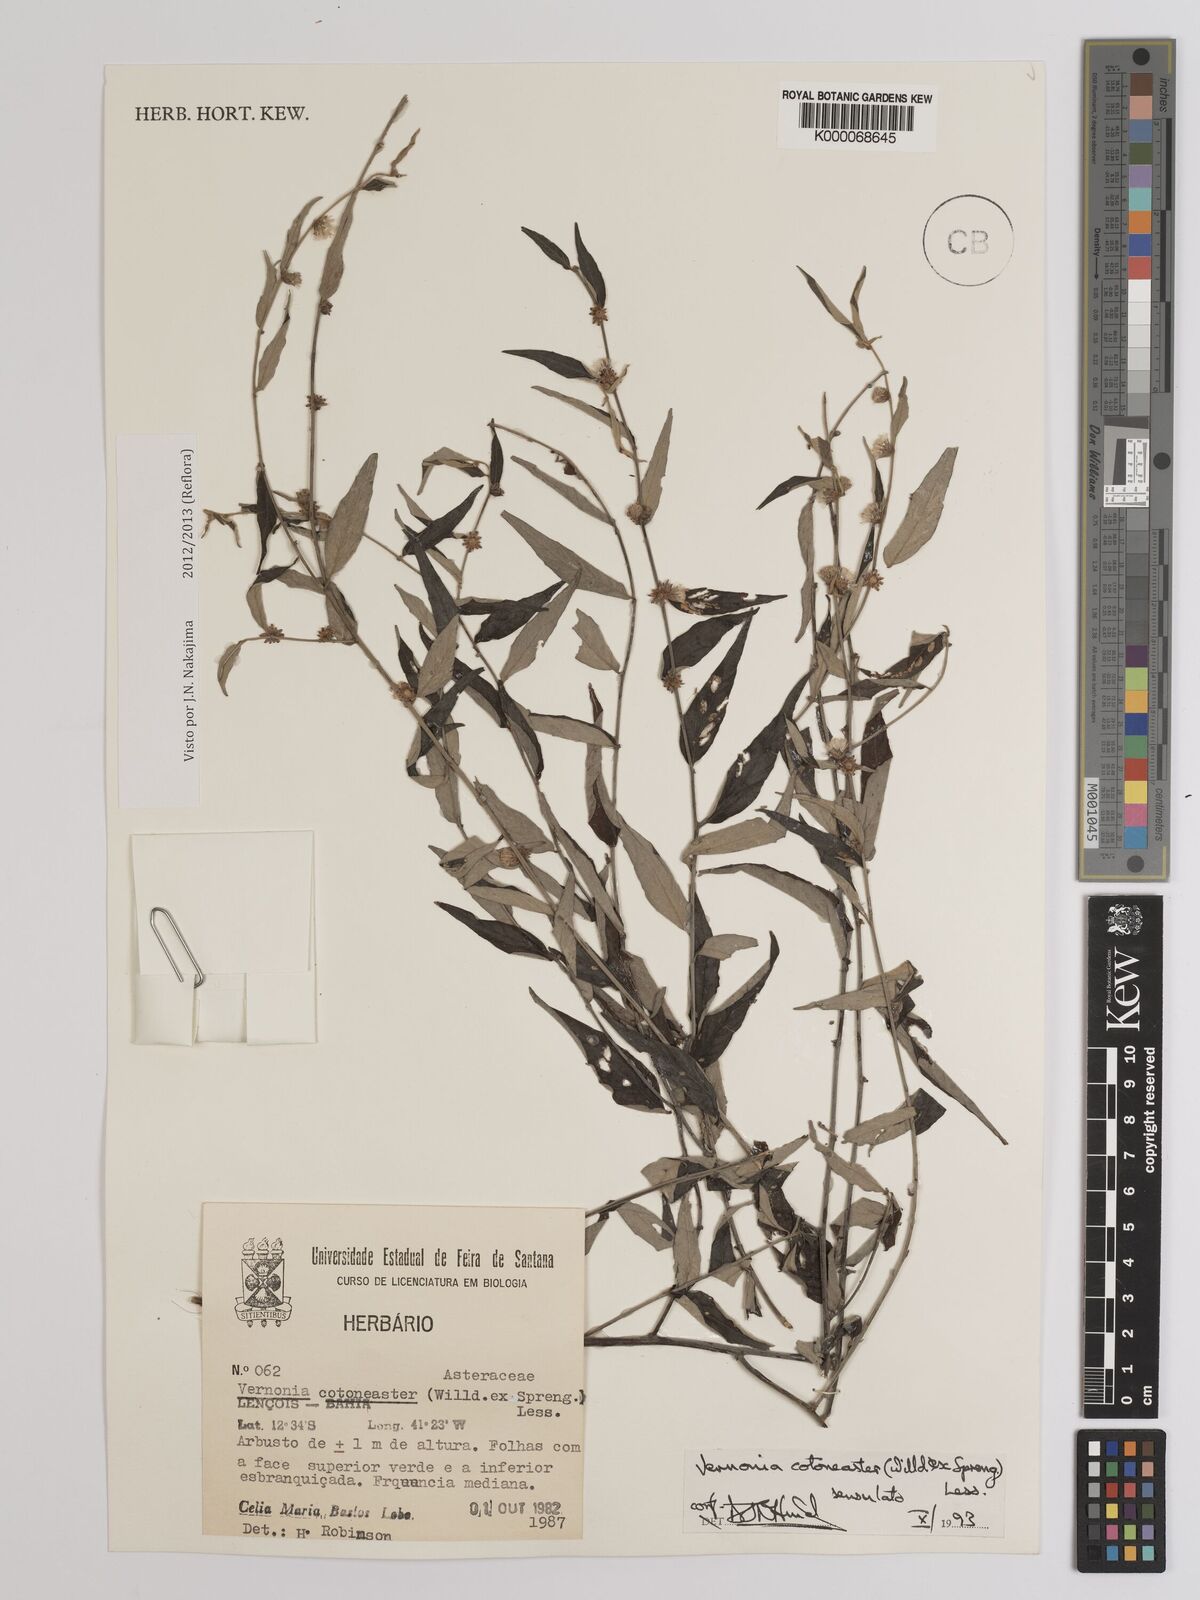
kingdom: Plantae
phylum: Tracheophyta
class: Magnoliopsida
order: Asterales
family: Asteraceae
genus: Lepidaploa
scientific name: Lepidaploa cotoneaster
